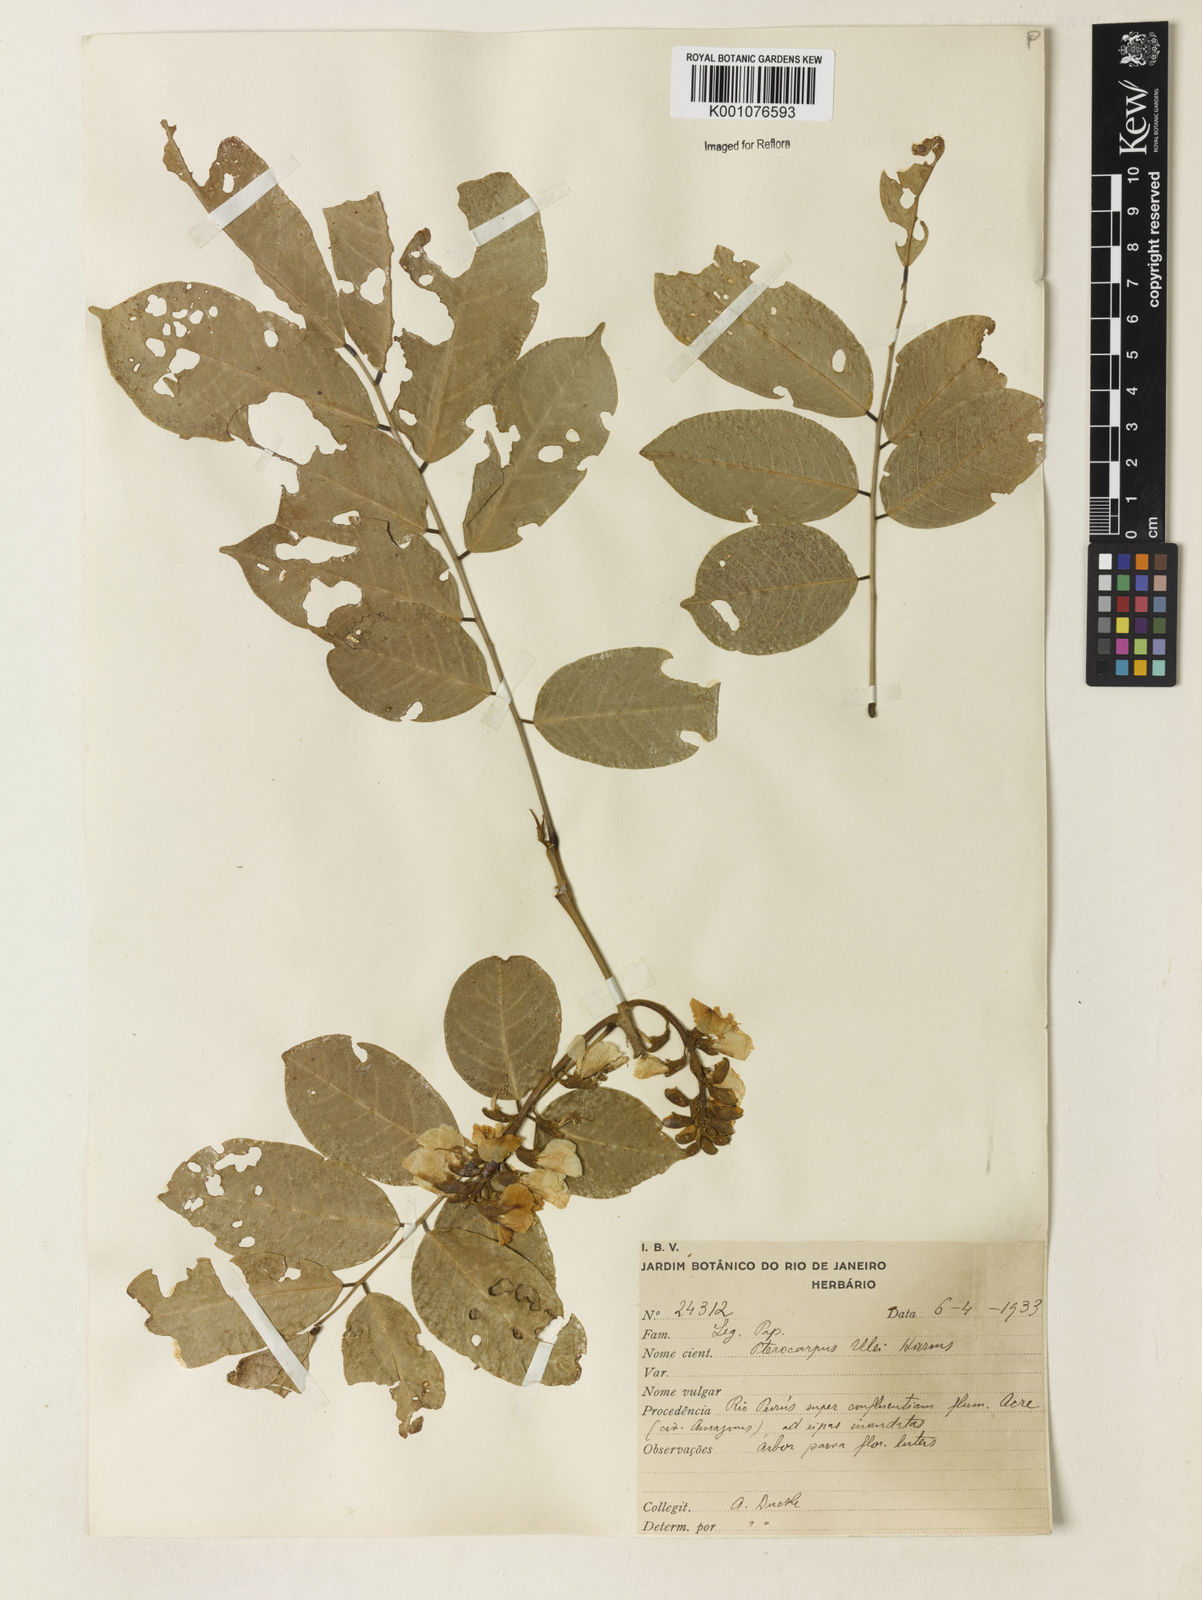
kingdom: Plantae
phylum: Tracheophyta
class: Magnoliopsida
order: Fabales
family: Fabaceae
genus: Pterocarpus
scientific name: Pterocarpus santalinoides
